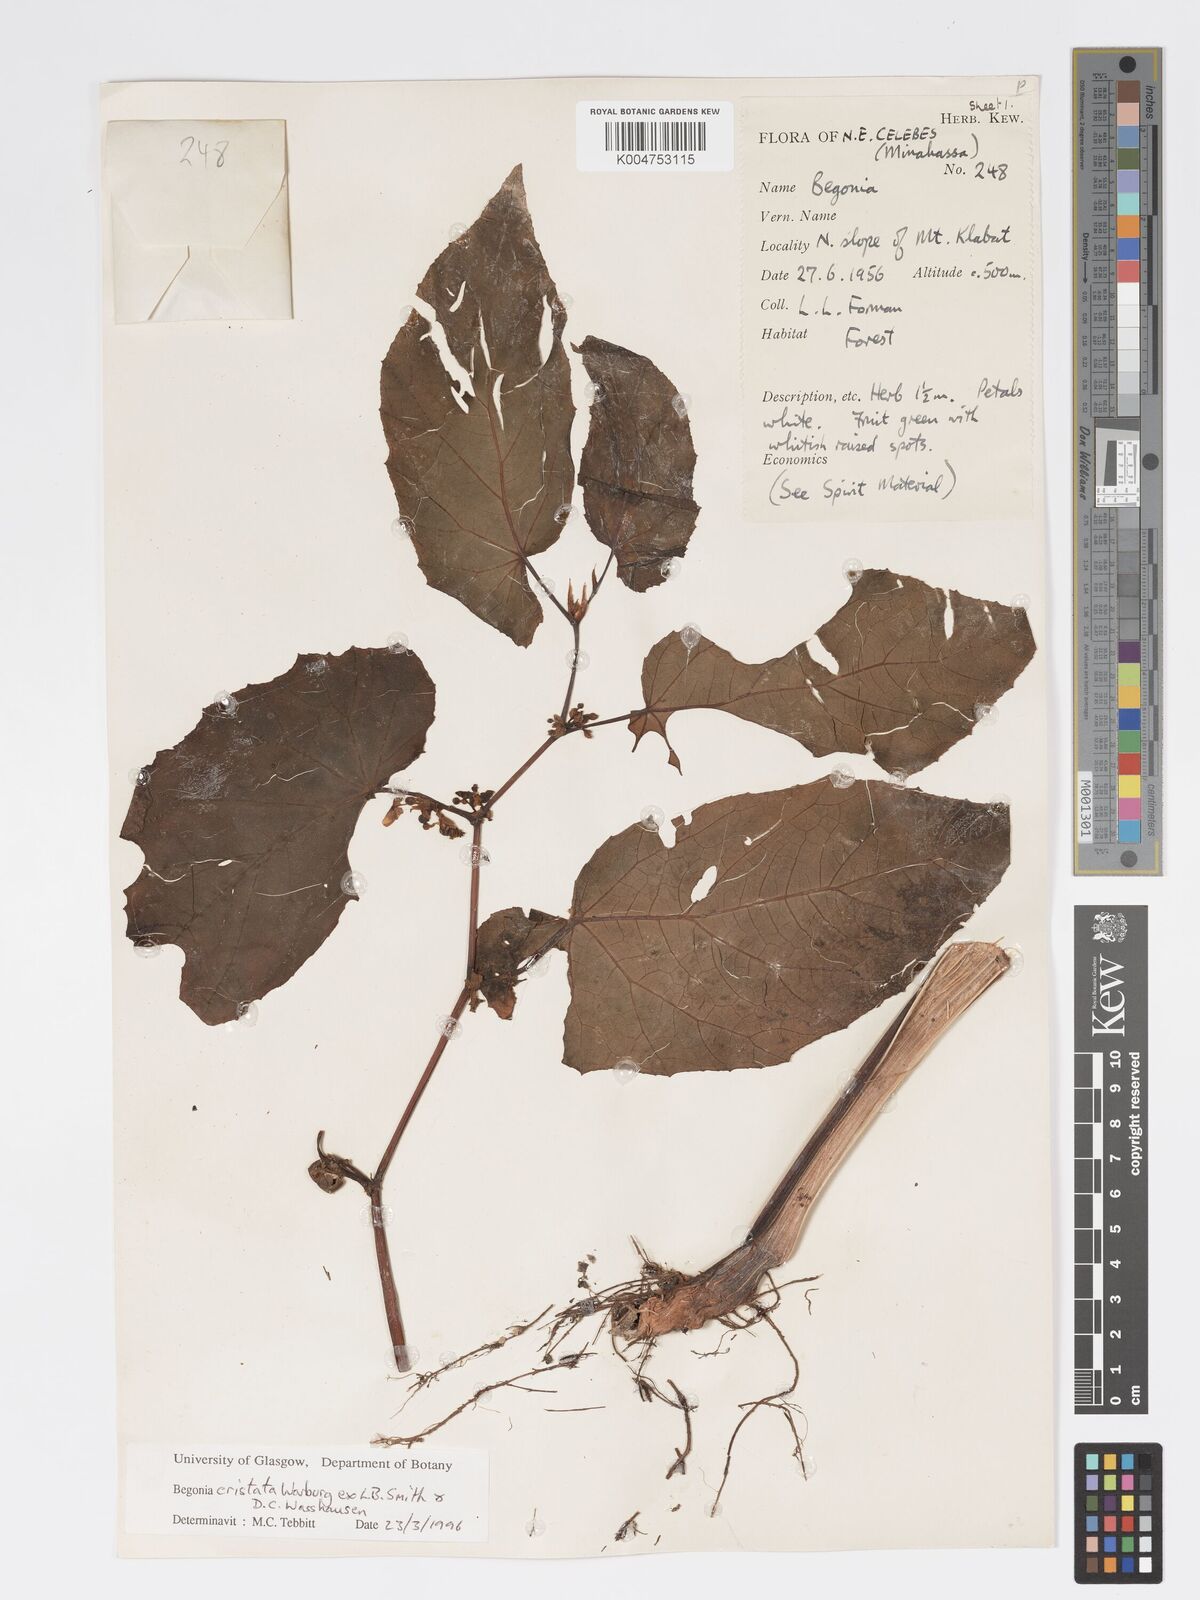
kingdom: Plantae
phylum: Tracheophyta
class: Magnoliopsida
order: Cucurbitales
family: Begoniaceae
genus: Begonia
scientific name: Begonia
